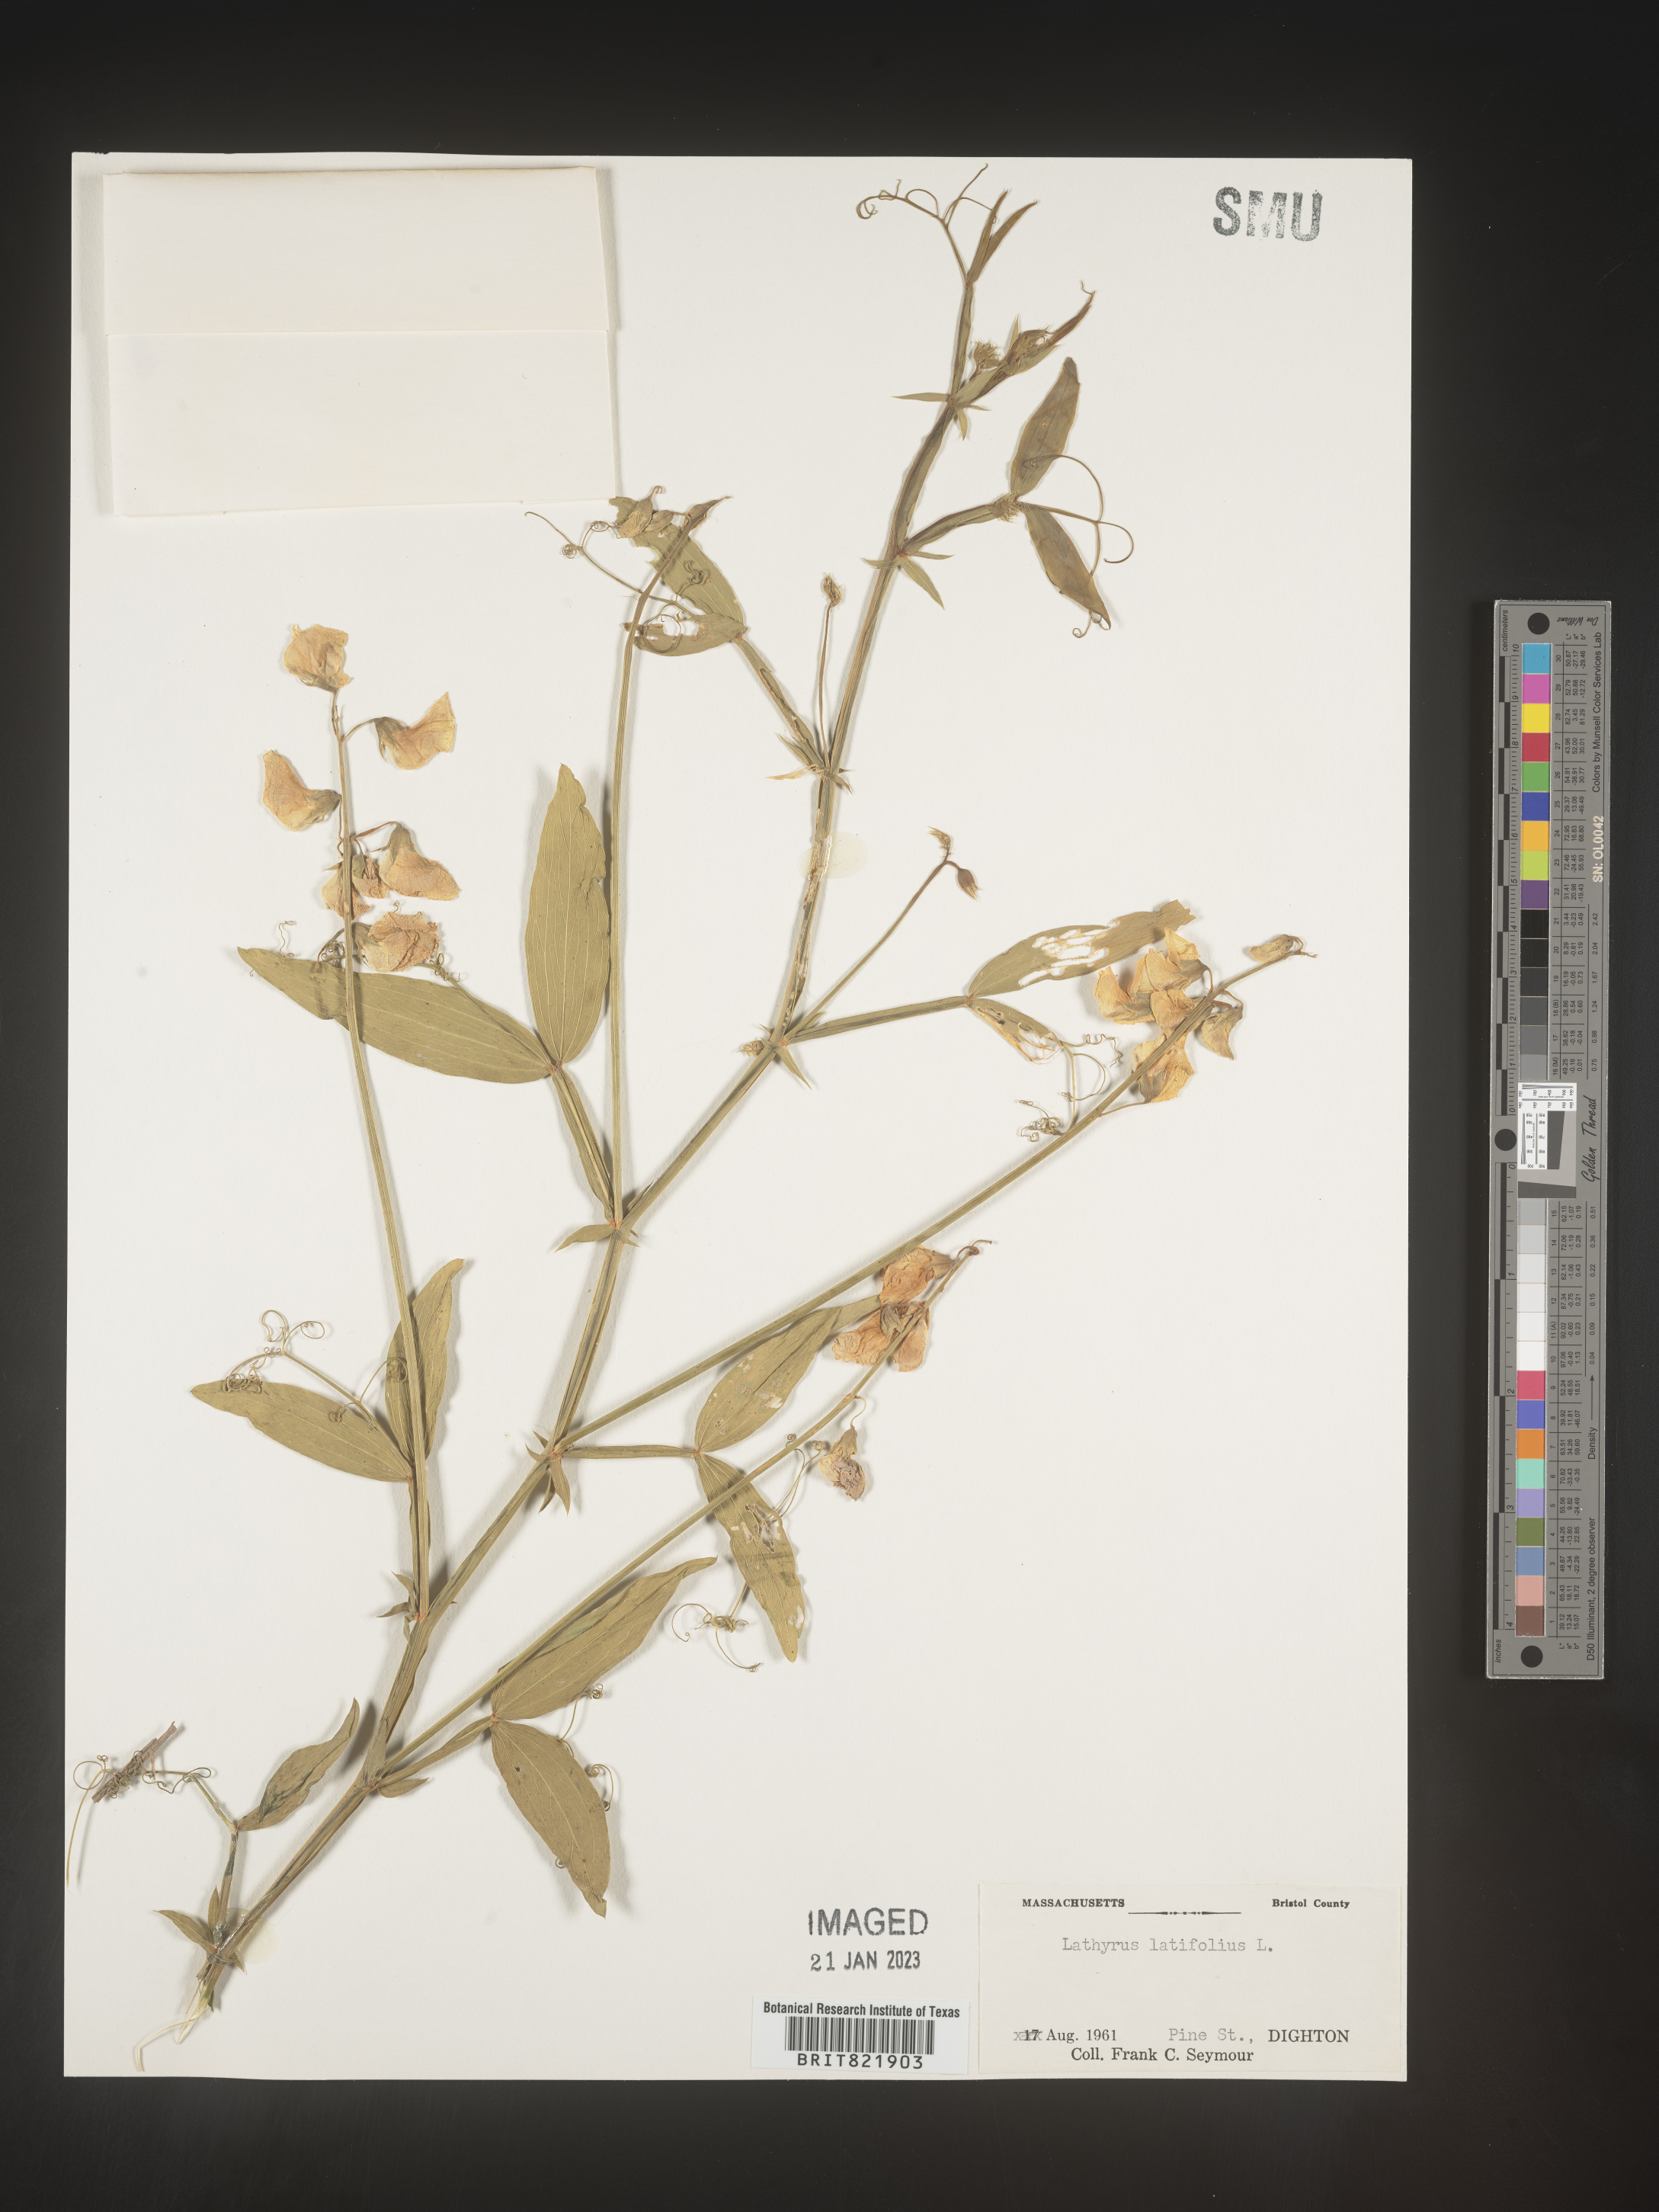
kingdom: Plantae
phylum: Tracheophyta
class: Magnoliopsida
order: Fabales
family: Fabaceae
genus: Lathyrus
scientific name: Lathyrus latifolius
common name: Perennial pea
